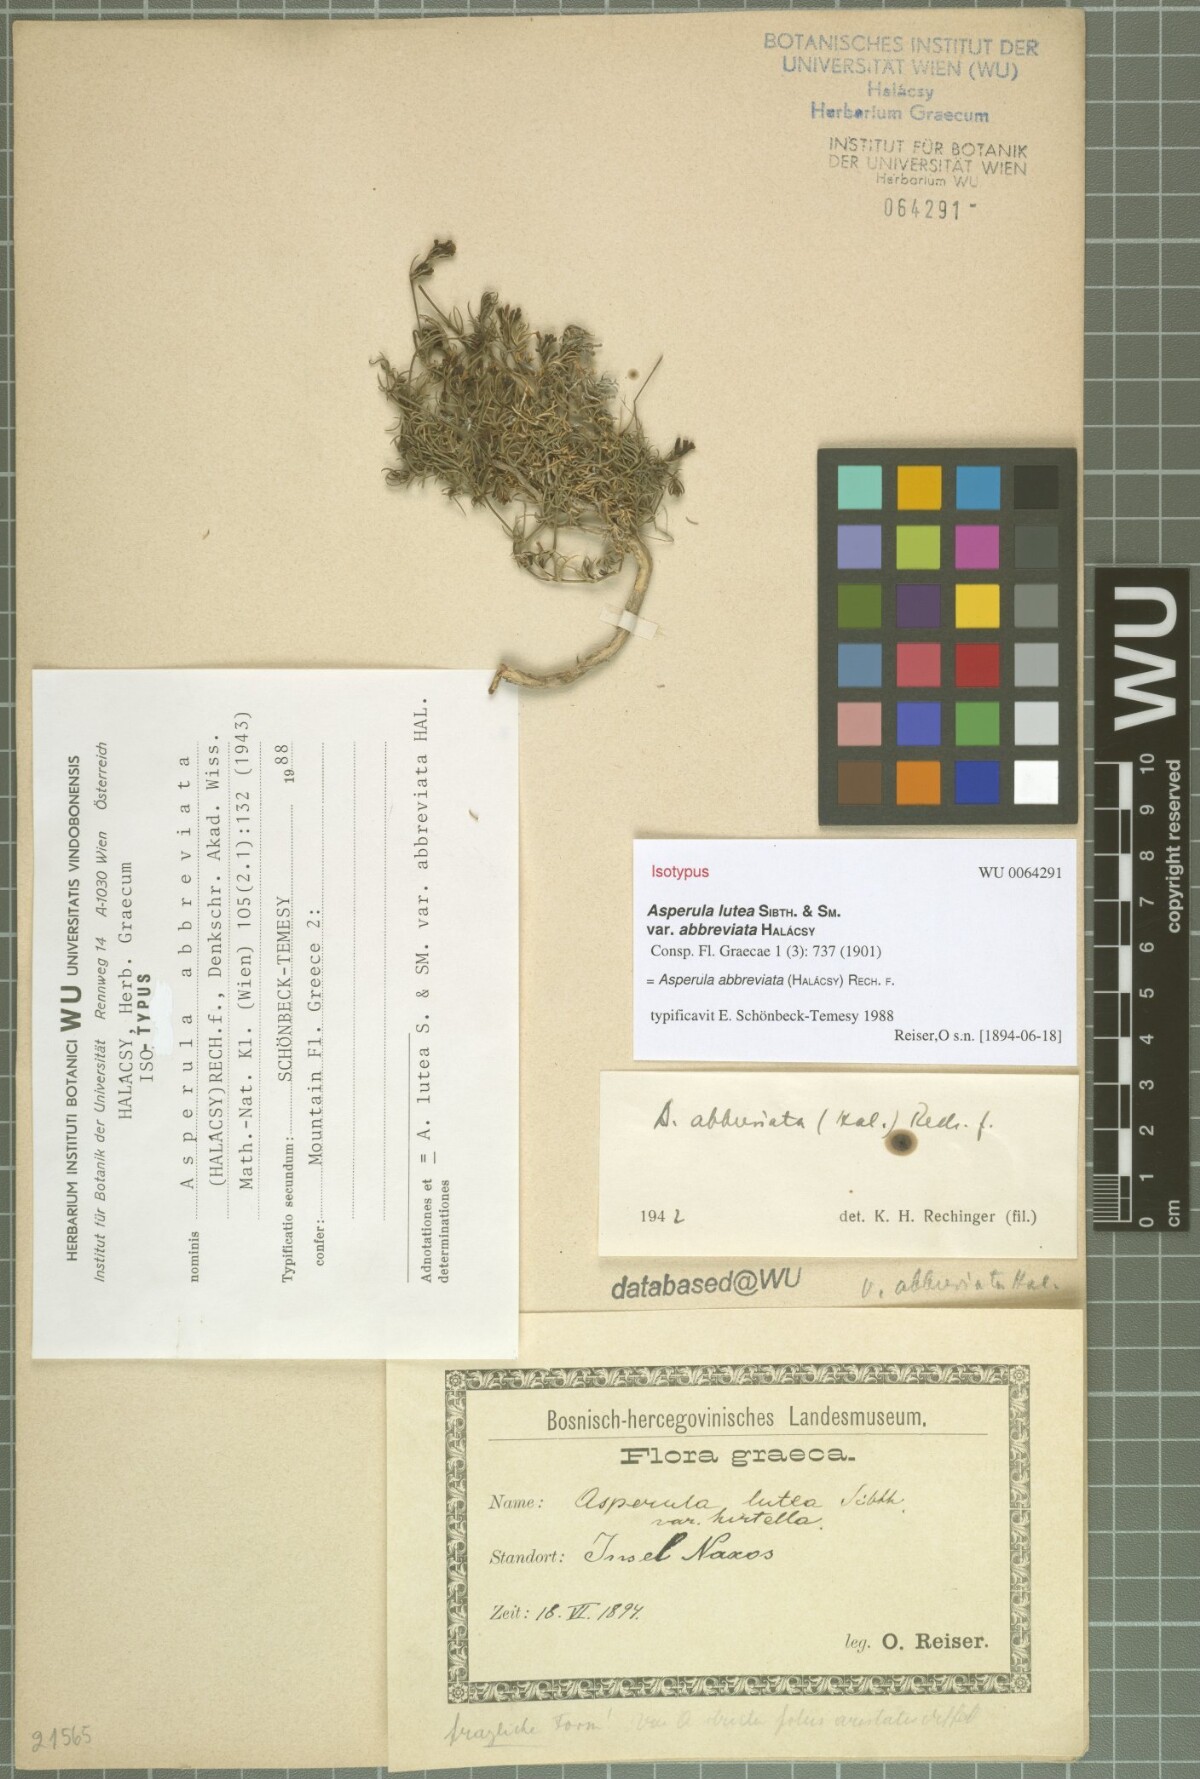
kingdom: Plantae
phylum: Tracheophyta
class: Magnoliopsida
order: Gentianales
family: Rubiaceae
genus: Cynanchica
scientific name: Cynanchica abbreviata
